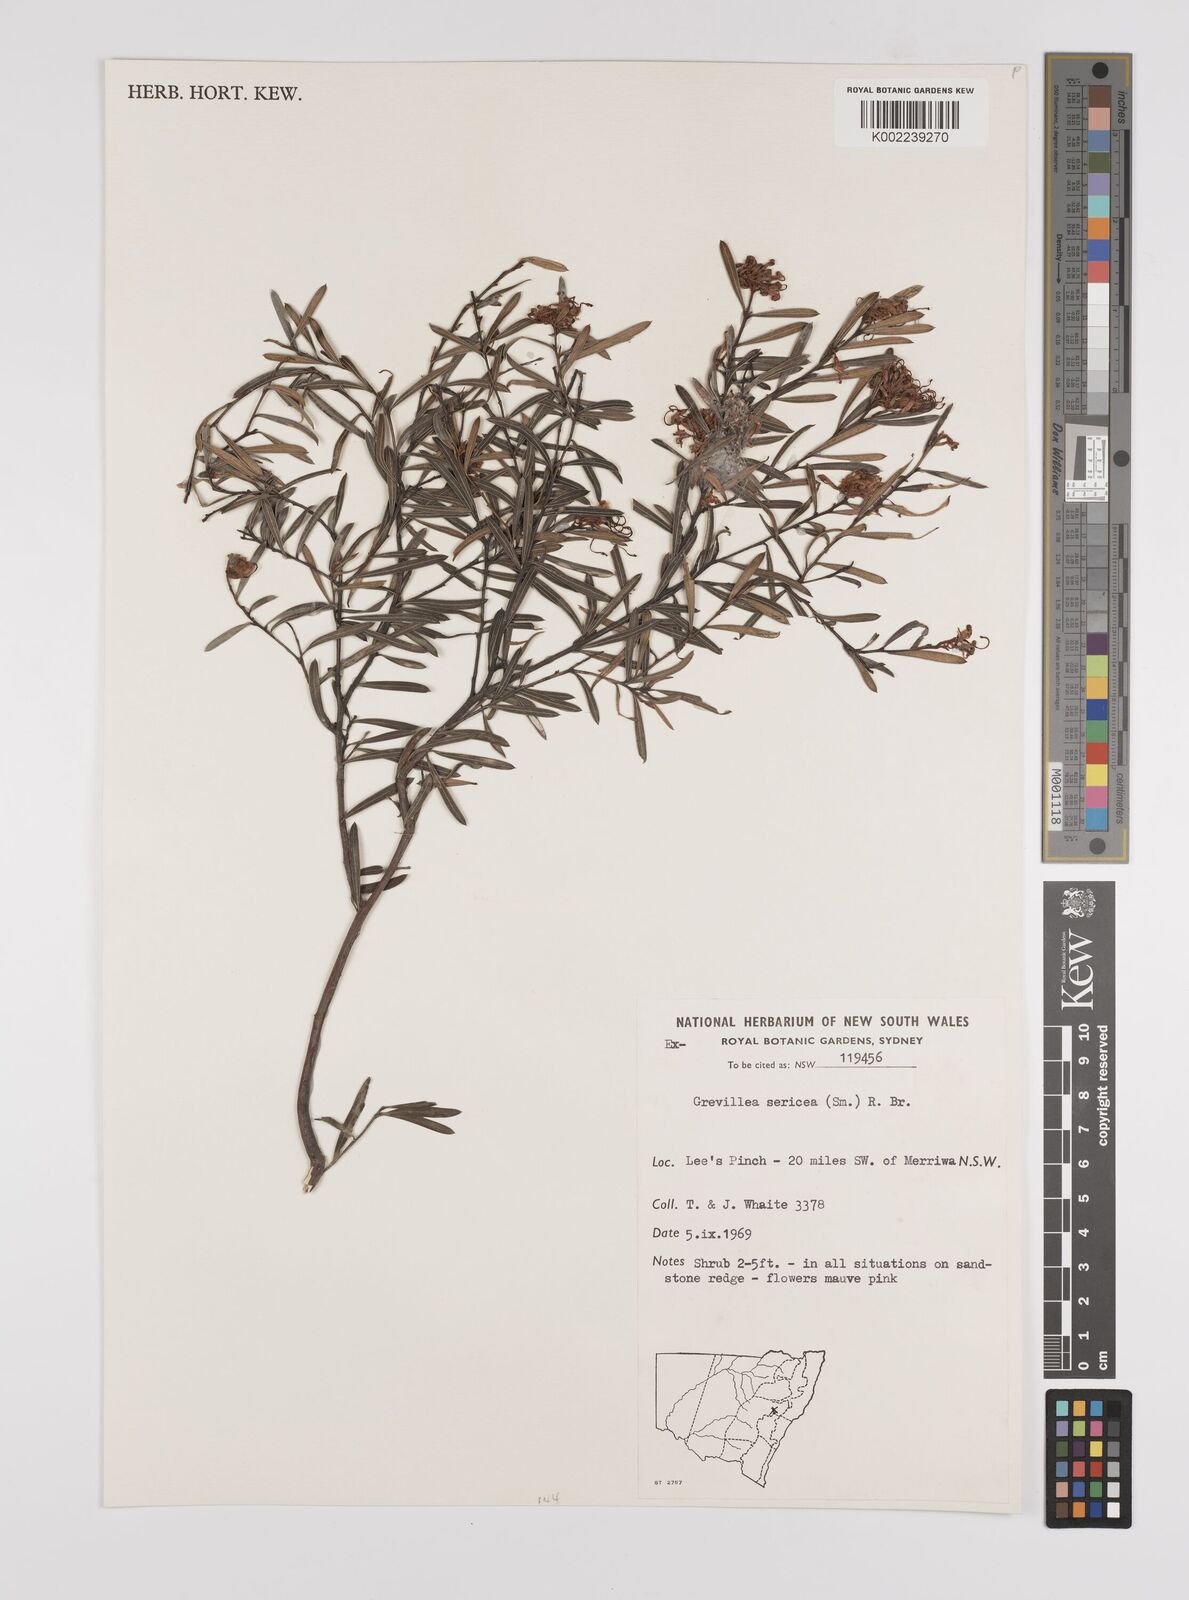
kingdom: Plantae
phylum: Tracheophyta
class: Magnoliopsida
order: Proteales
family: Proteaceae
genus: Grevillea
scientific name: Grevillea sericea
